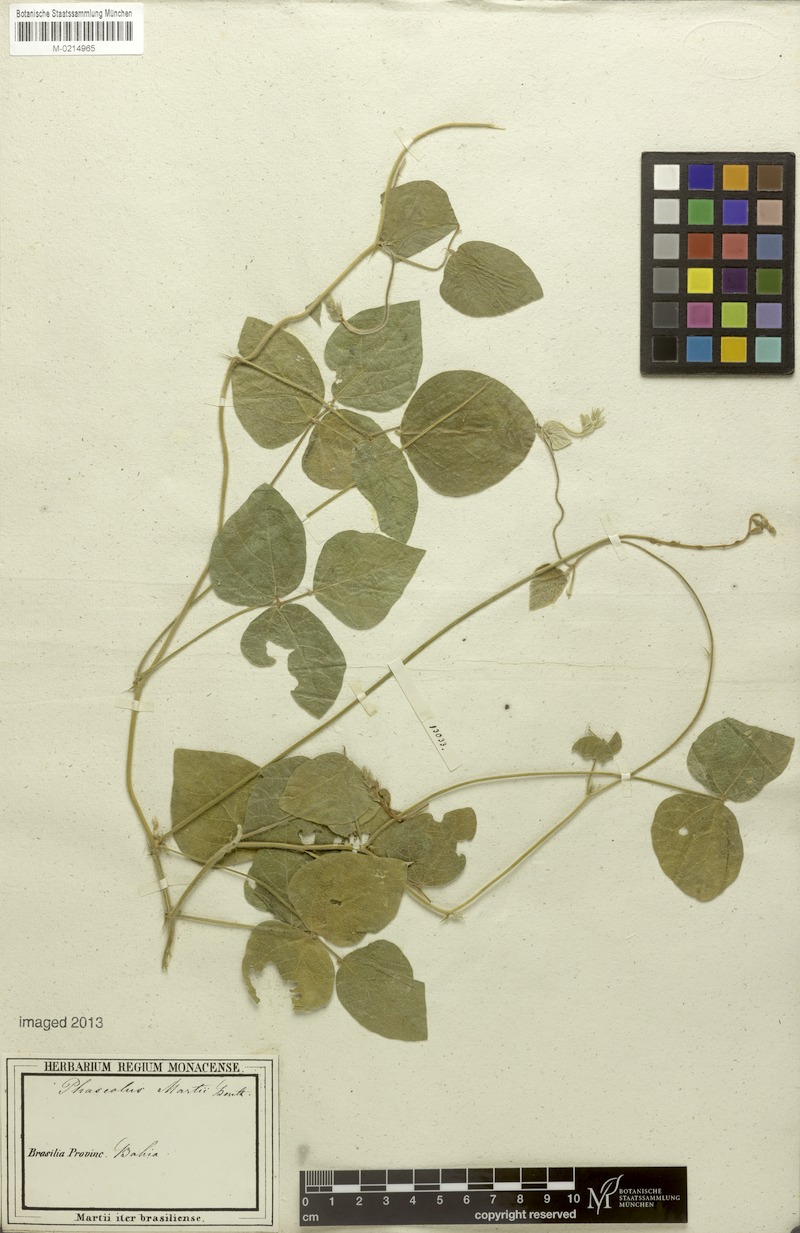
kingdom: Plantae
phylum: Tracheophyta
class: Magnoliopsida
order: Fabales
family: Fabaceae
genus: Macroptilium
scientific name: Macroptilium martii
